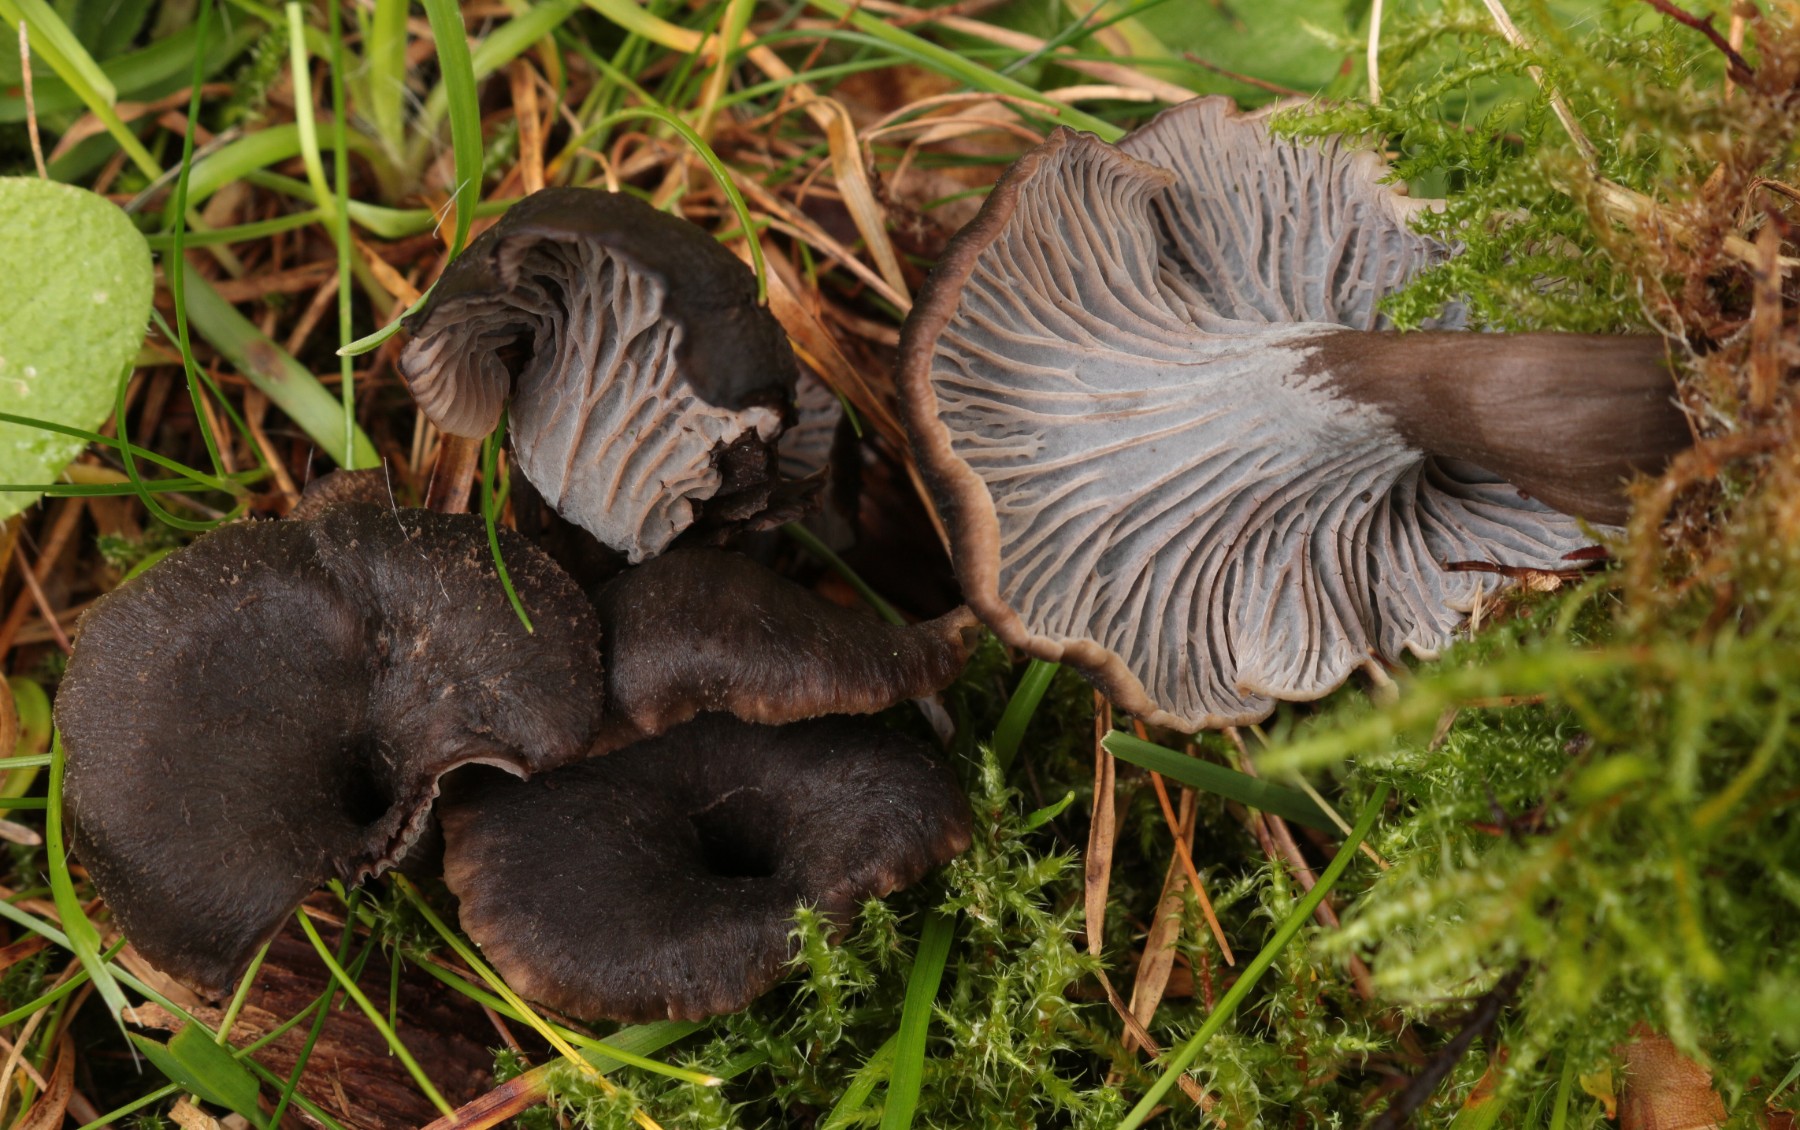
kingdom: Fungi
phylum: Basidiomycota
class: Agaricomycetes
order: Cantharellales
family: Hydnaceae
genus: Cantharellus
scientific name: Cantharellus cinereus
